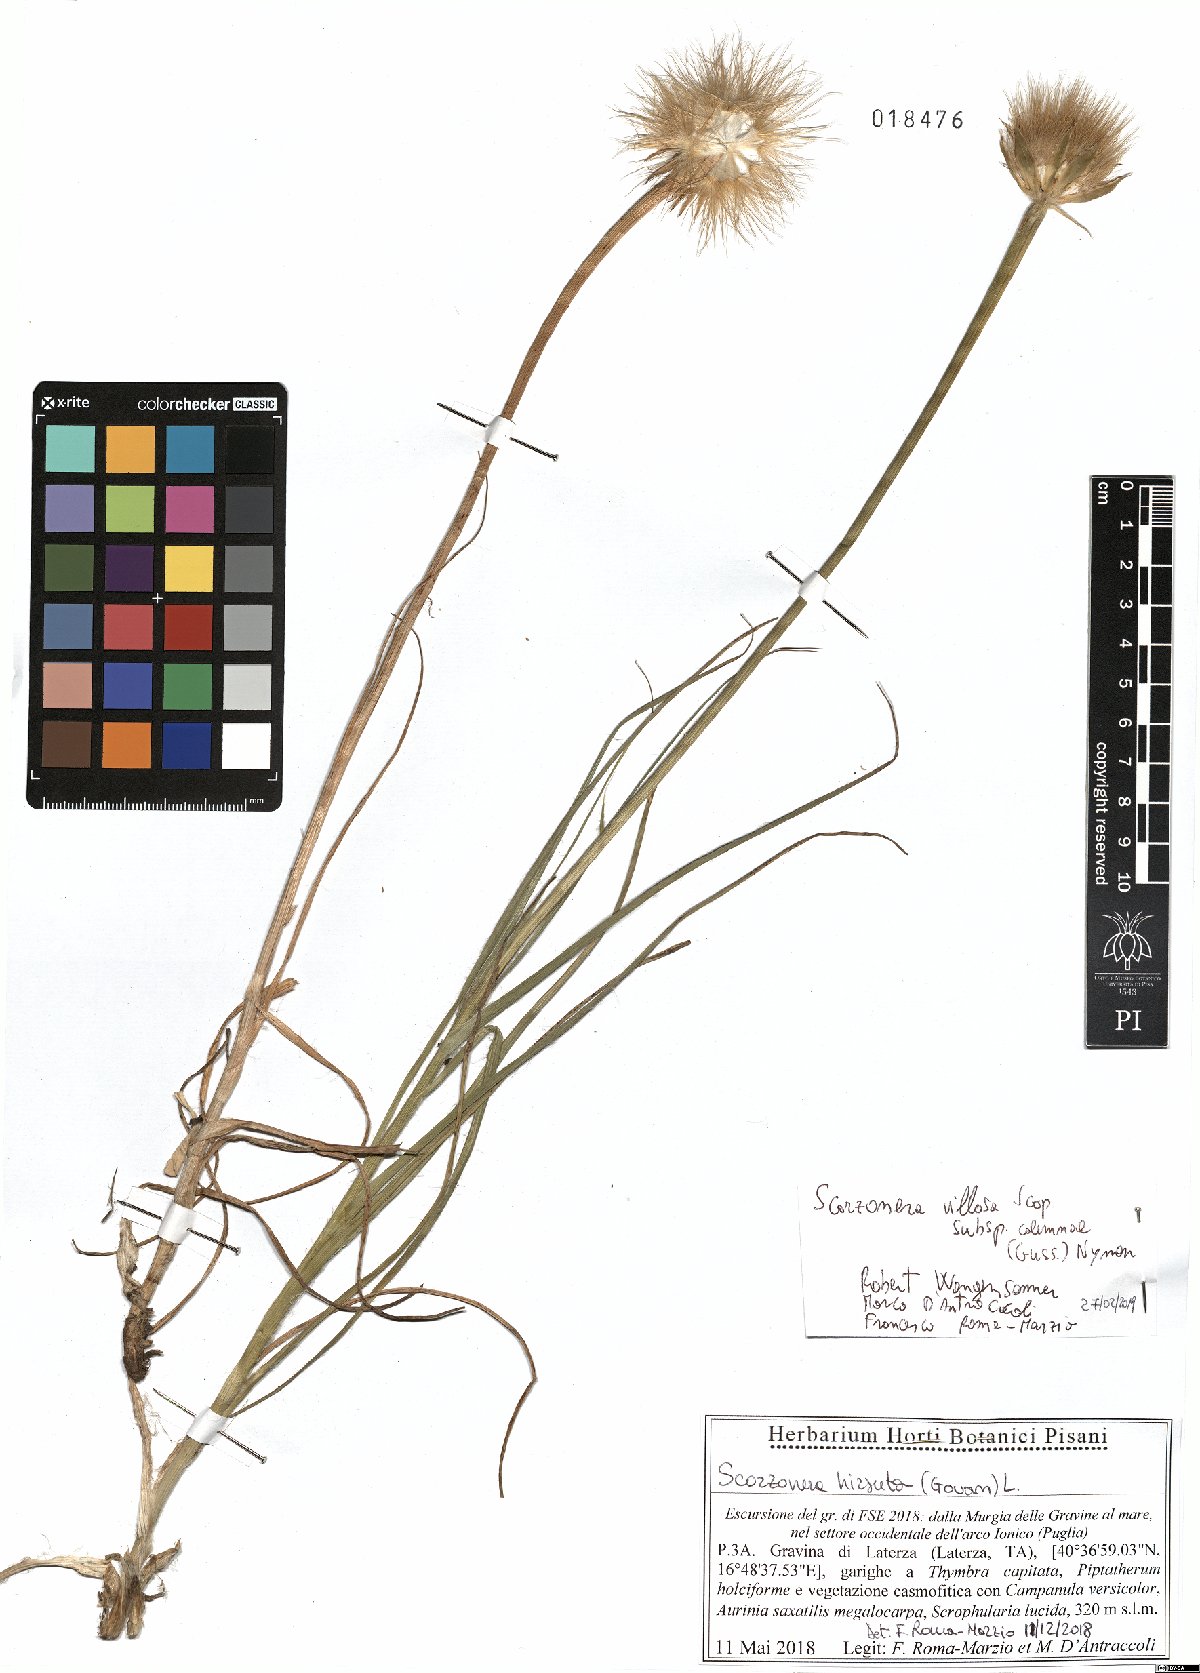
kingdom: Plantae
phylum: Tracheophyta
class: Magnoliopsida
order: Asterales
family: Asteraceae
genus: Gelasia
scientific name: Gelasia villosa
